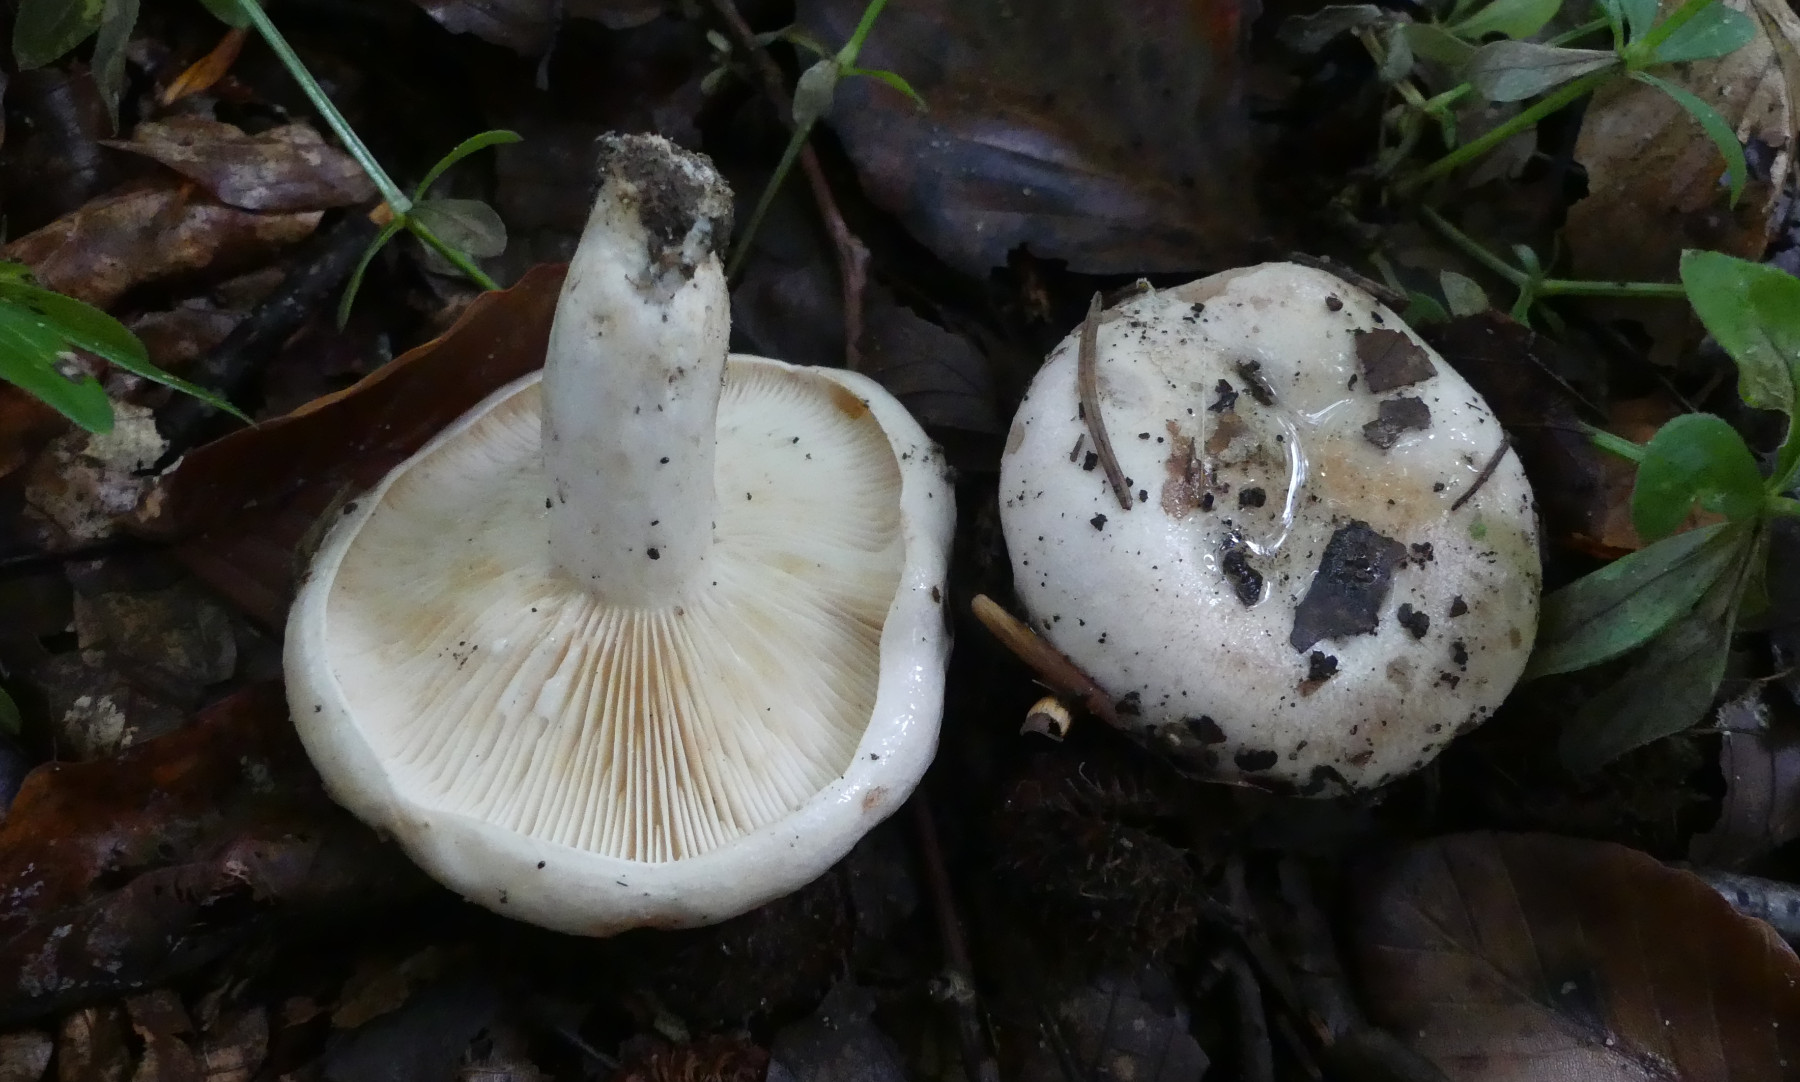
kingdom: Fungi
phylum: Basidiomycota
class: Agaricomycetes
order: Russulales
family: Russulaceae
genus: Lactarius
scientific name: Lactarius pallidus
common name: bleg mælkehat
